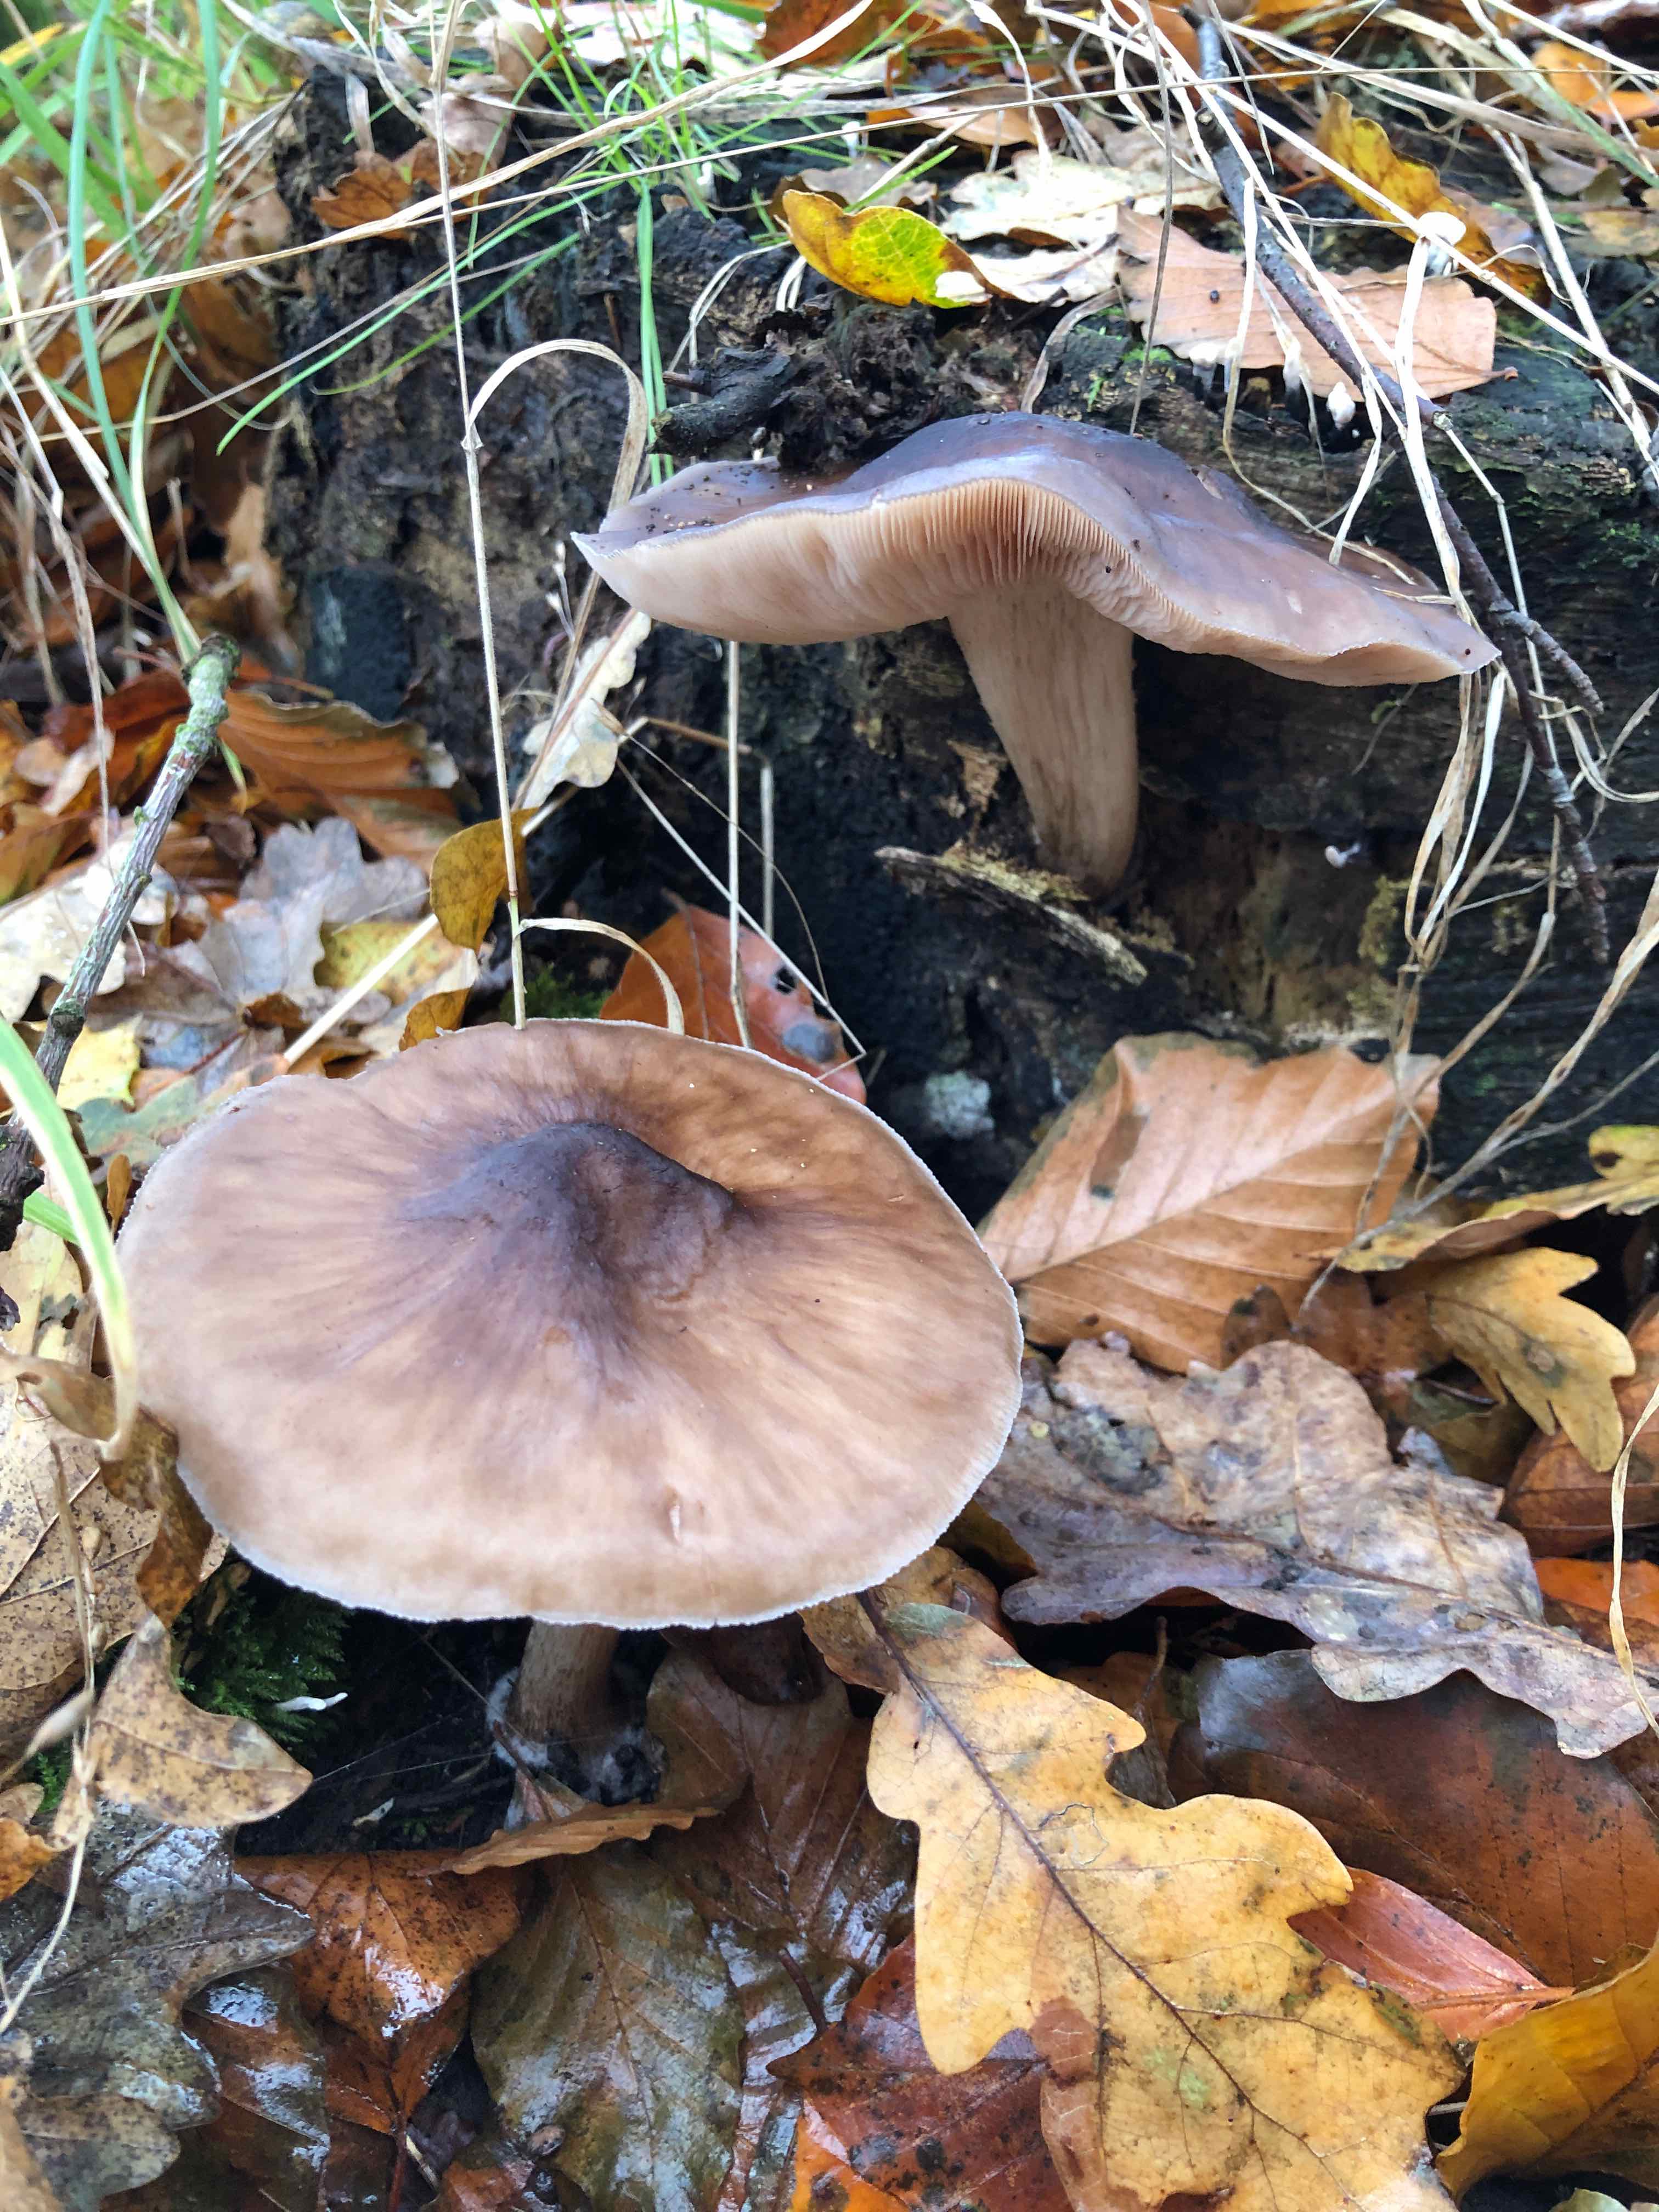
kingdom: Fungi
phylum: Basidiomycota
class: Agaricomycetes
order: Agaricales
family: Pluteaceae
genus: Pluteus
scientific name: Pluteus cervinus
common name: sodfarvet skærmhat
